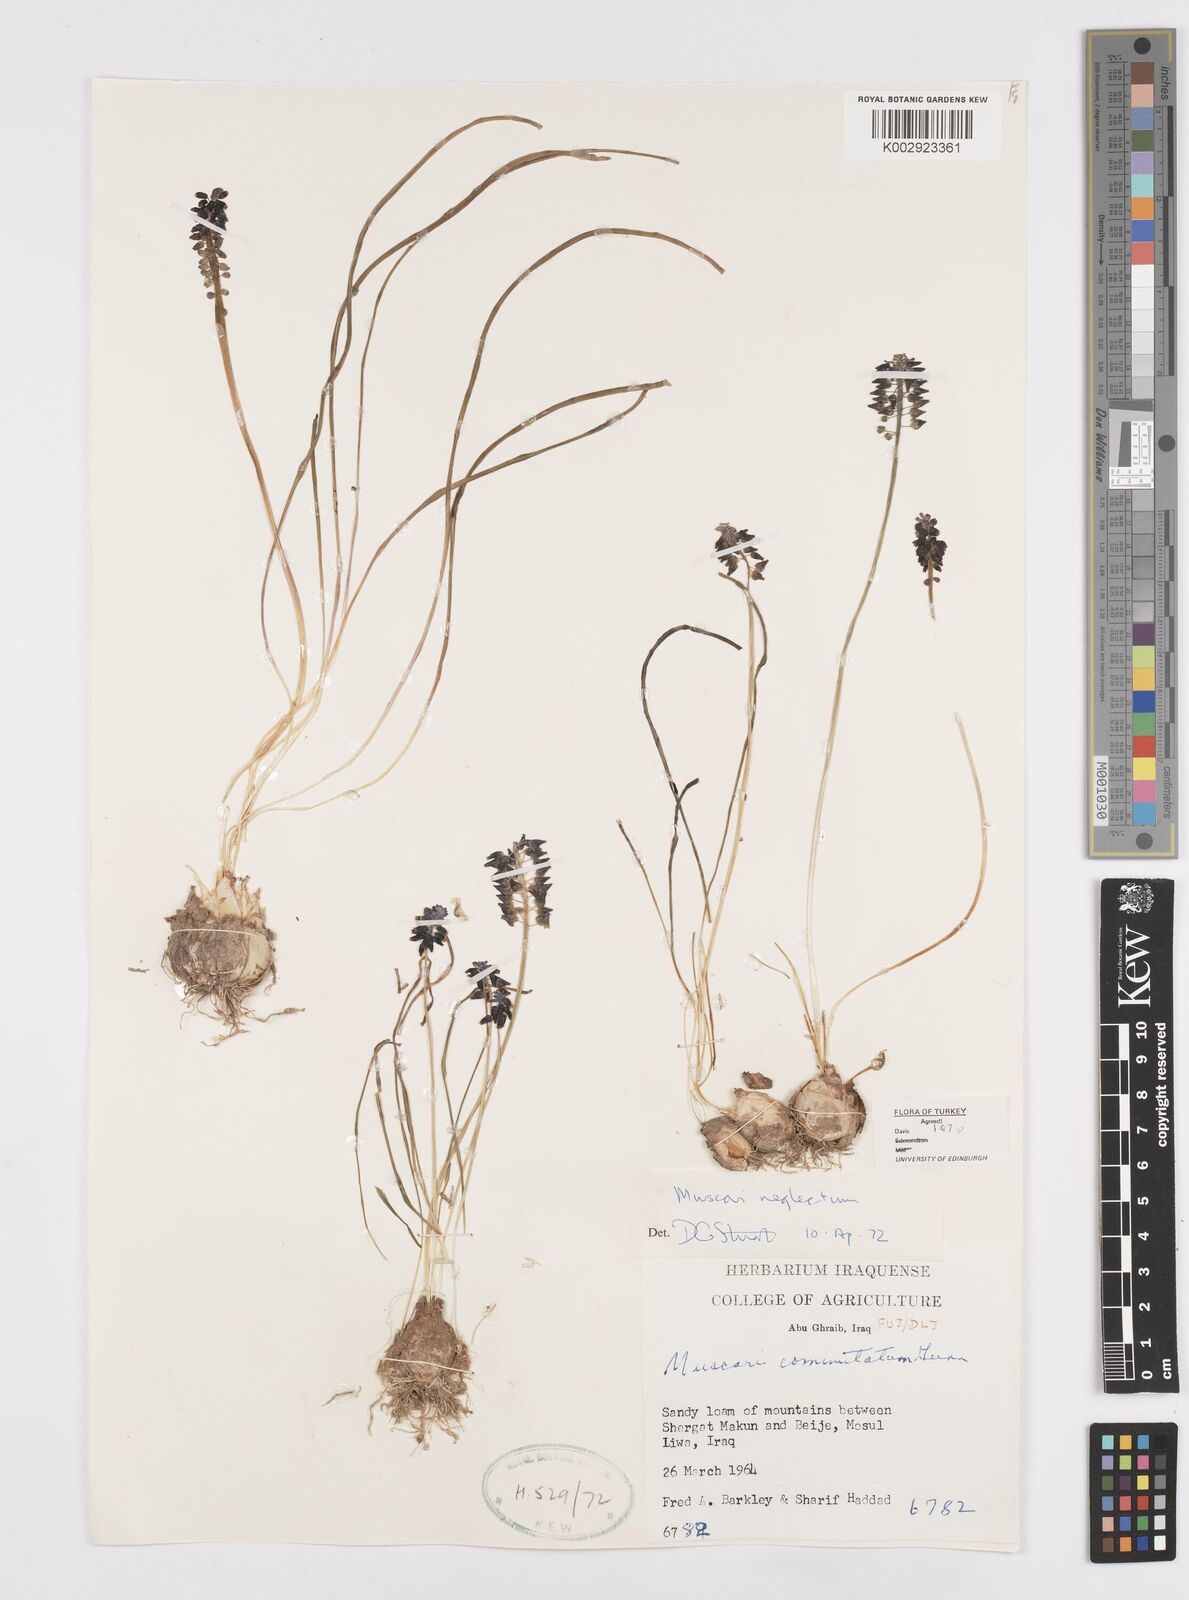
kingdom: Plantae
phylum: Tracheophyta
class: Liliopsida
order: Asparagales
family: Asparagaceae
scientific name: Asparagaceae
